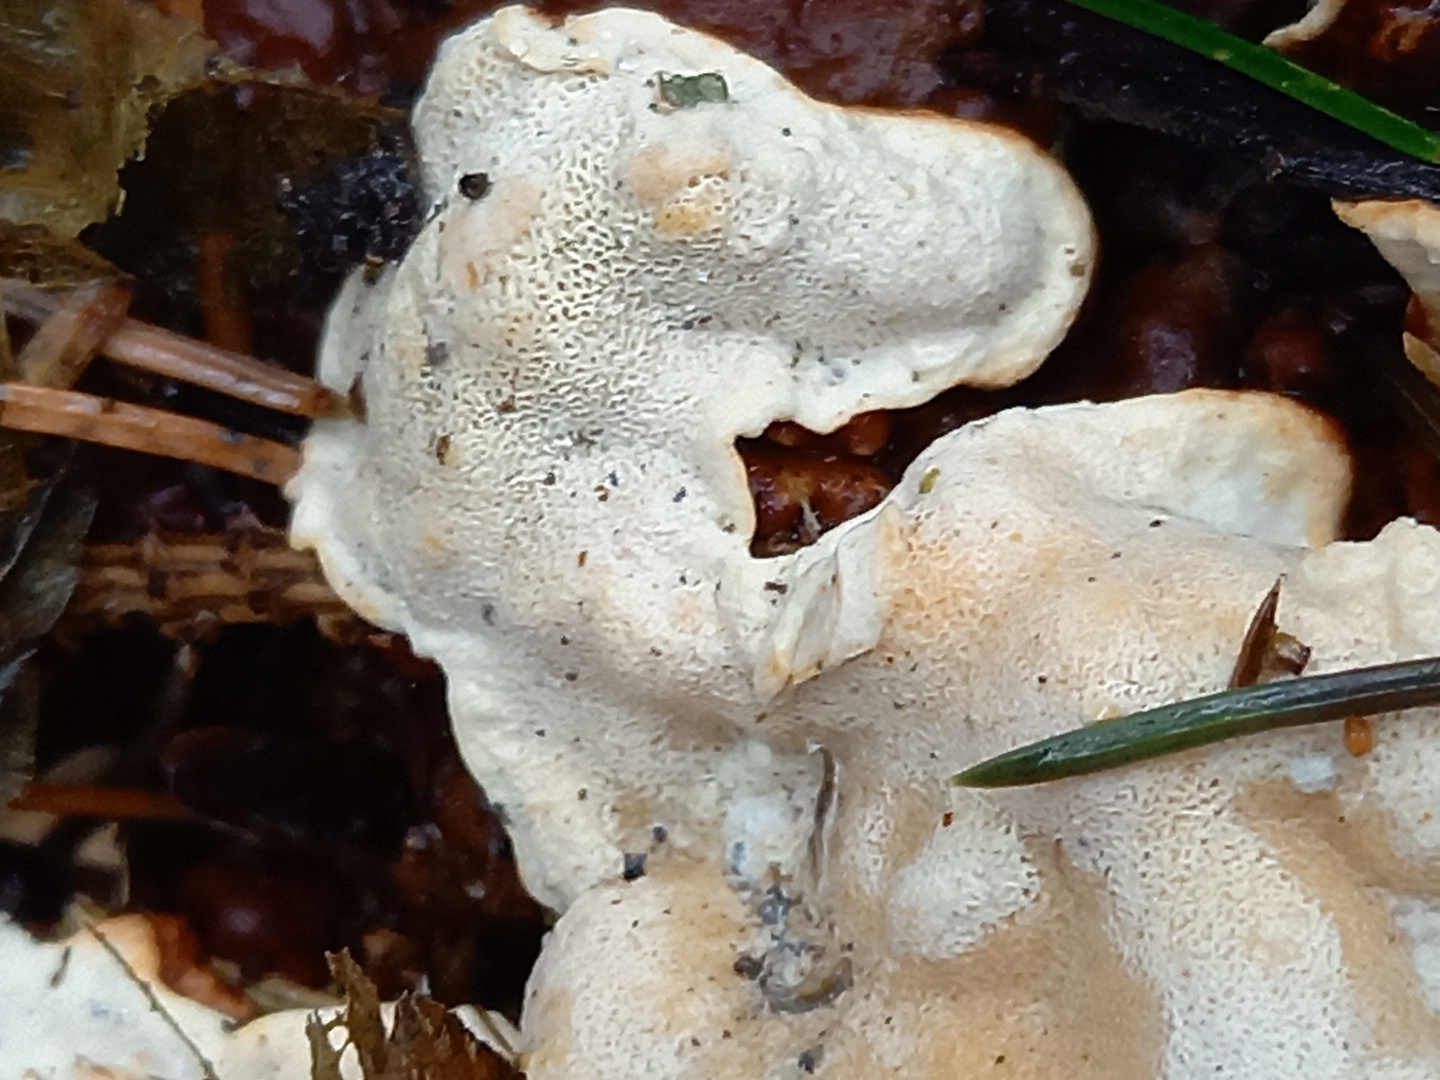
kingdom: Fungi
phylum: Basidiomycota
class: Agaricomycetes
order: Russulales
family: Bondarzewiaceae
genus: Heterobasidion
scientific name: Heterobasidion annosum
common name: almindelig rodfordærver
